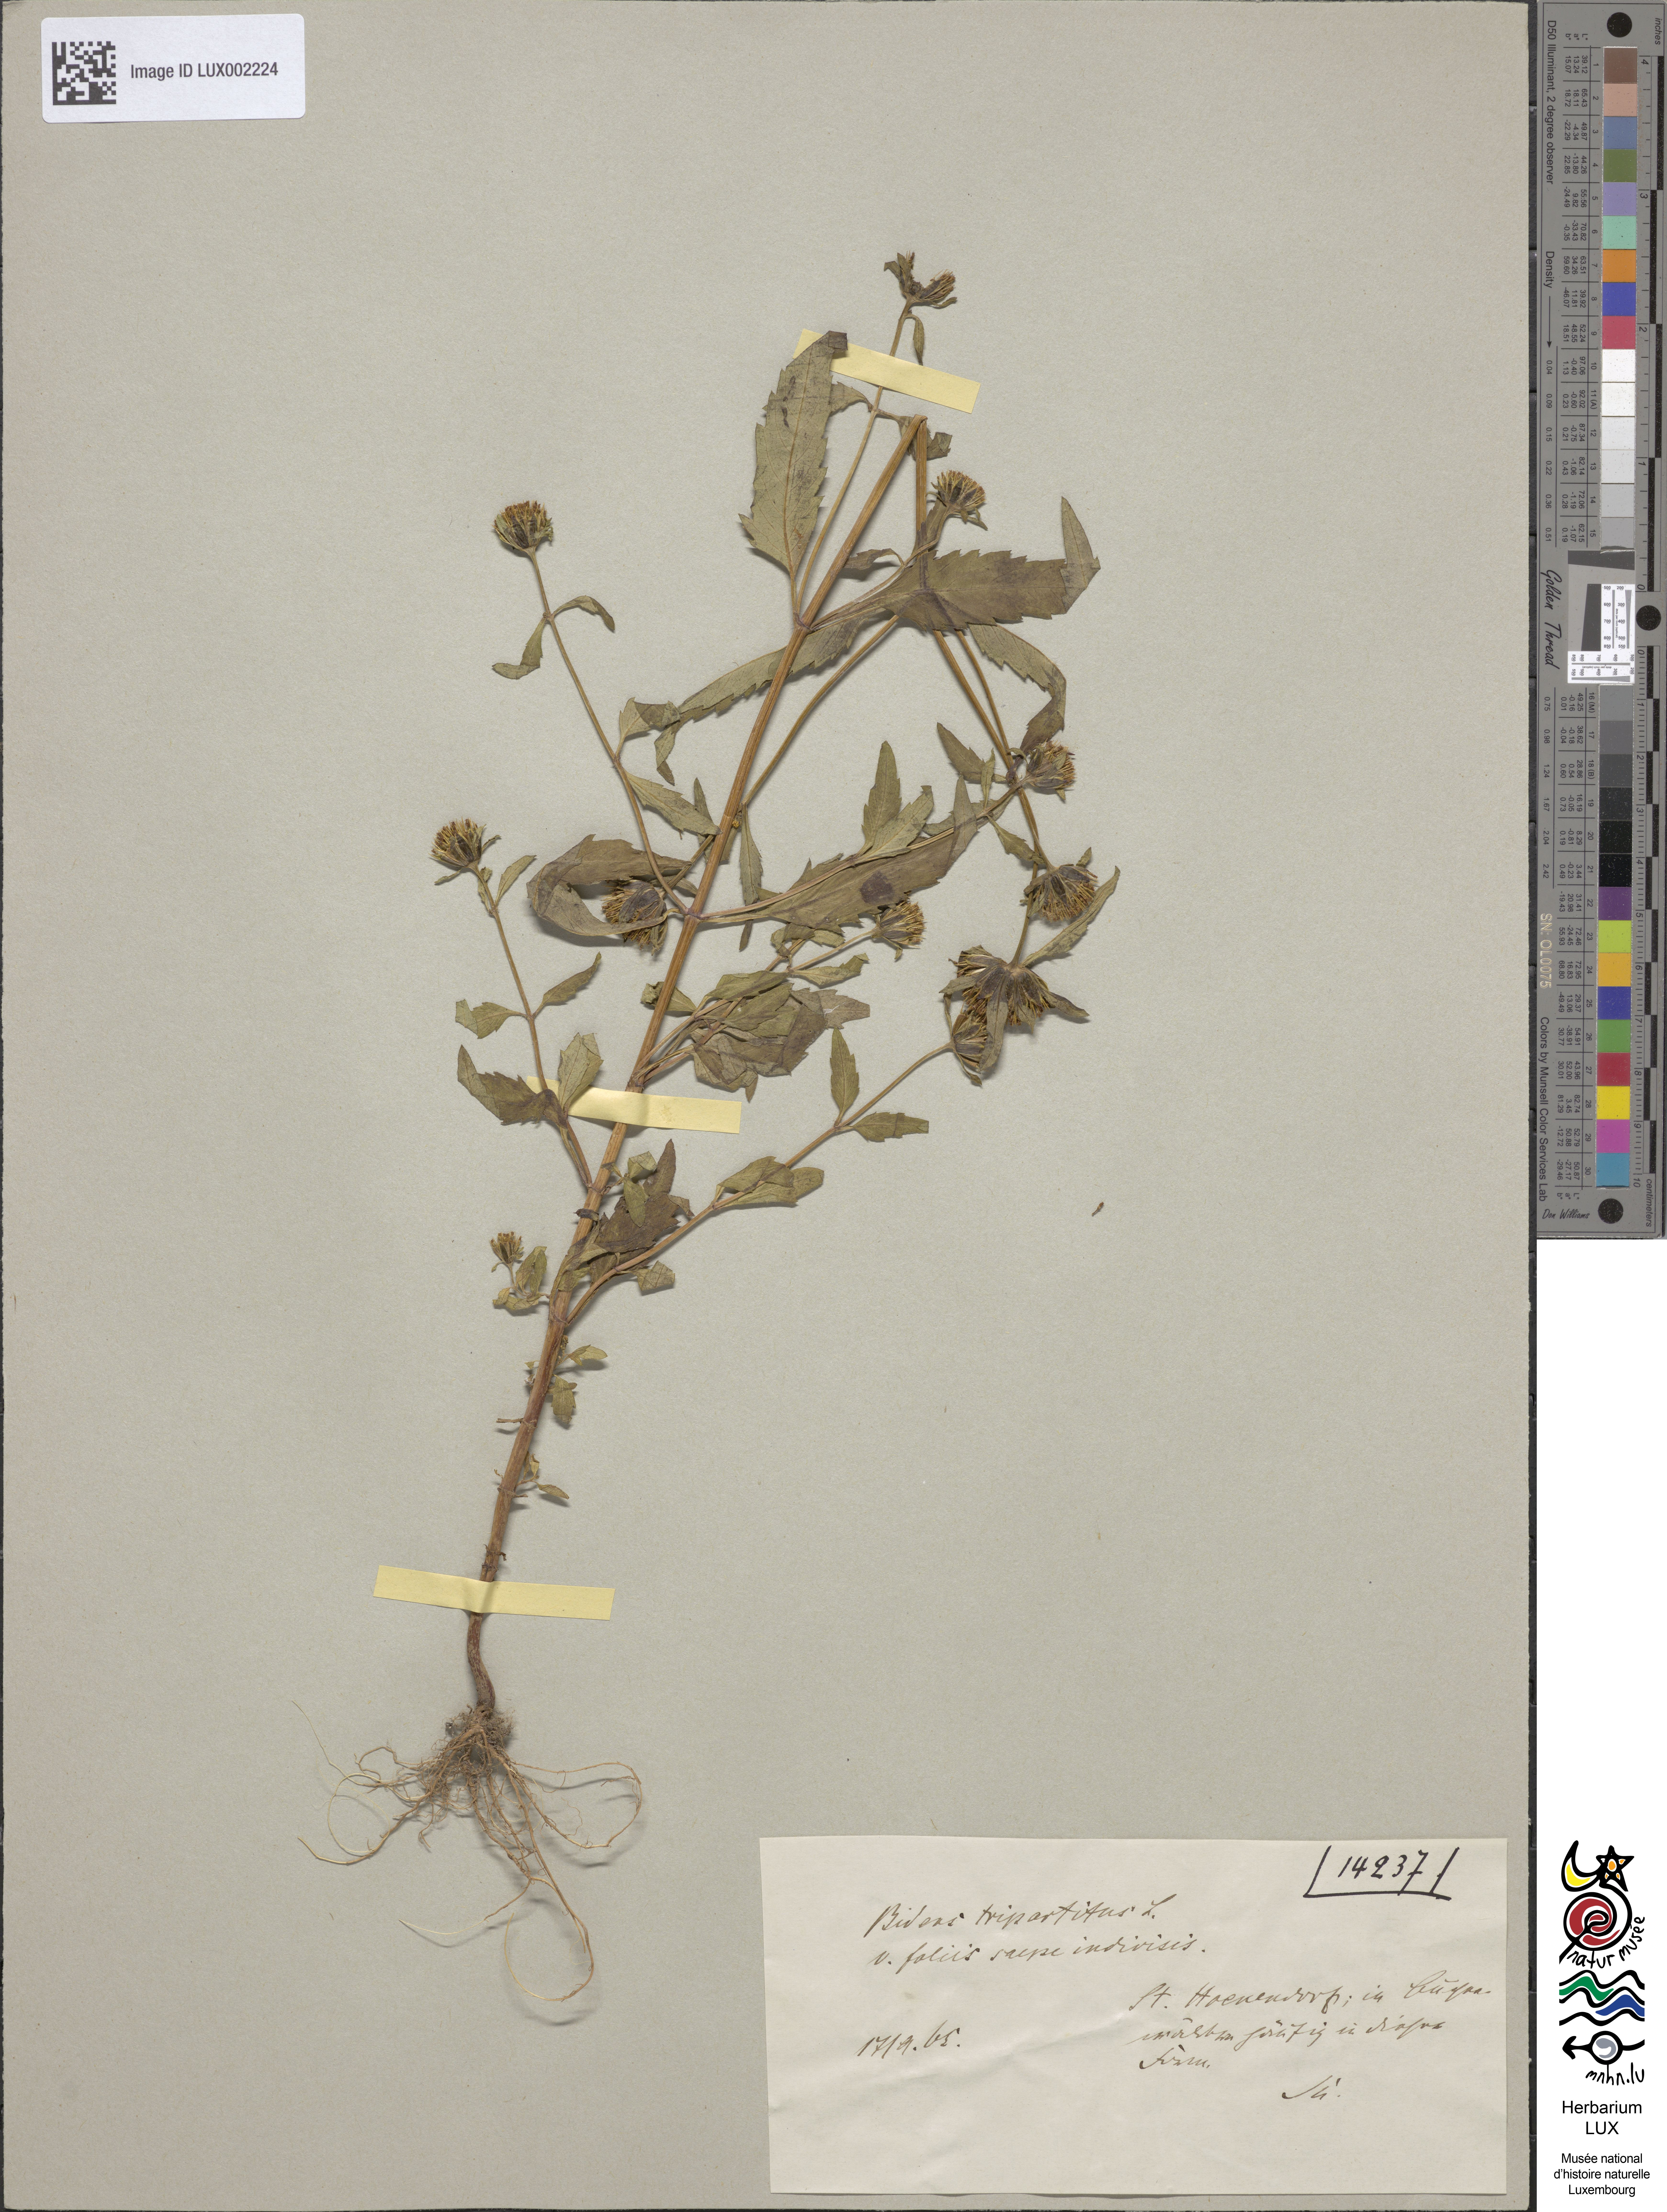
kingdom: Plantae
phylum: Tracheophyta
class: Magnoliopsida
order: Asterales
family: Asteraceae
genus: Bidens
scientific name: Bidens tripartita
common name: Trifid bur-marigold
